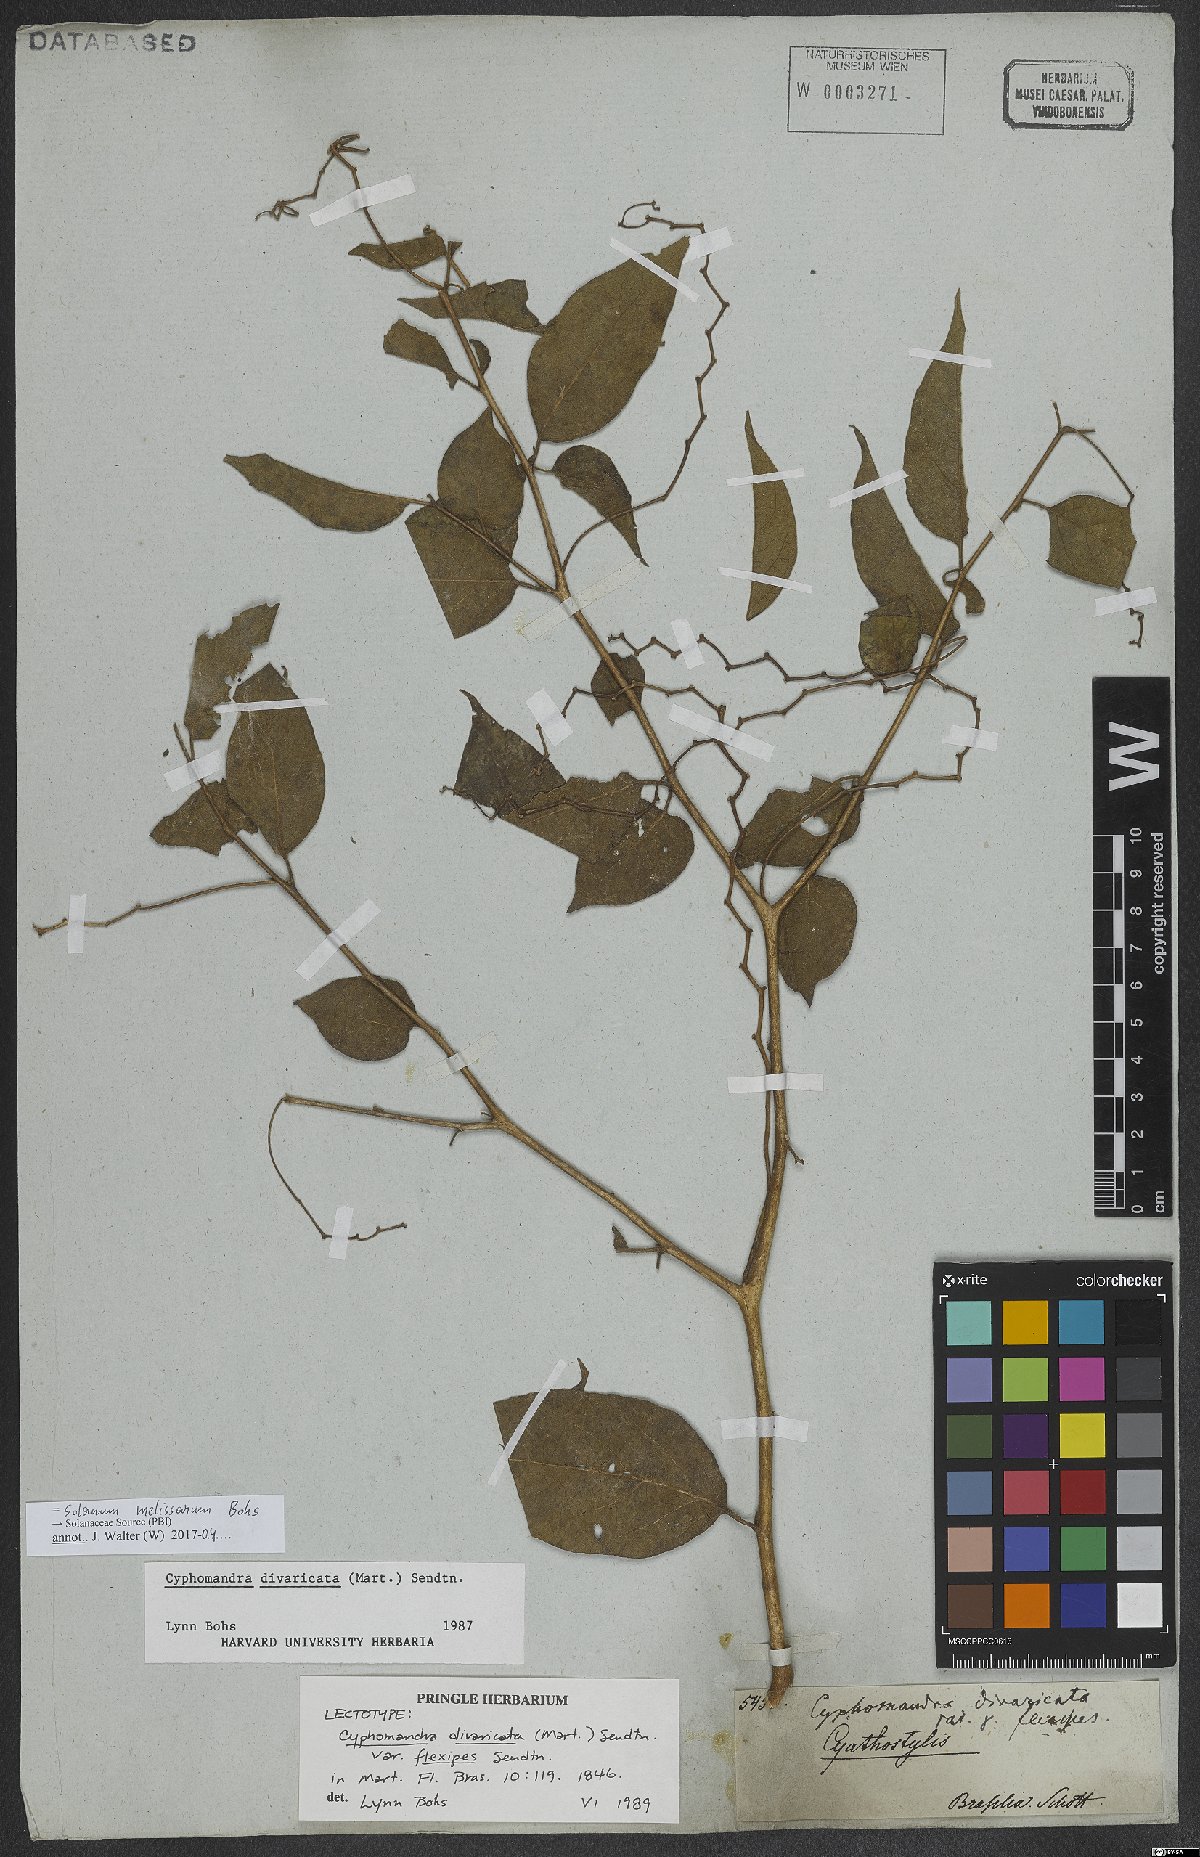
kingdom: Plantae
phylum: Tracheophyta
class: Magnoliopsida
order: Solanales
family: Solanaceae
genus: Solanum
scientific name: Solanum melissarum
